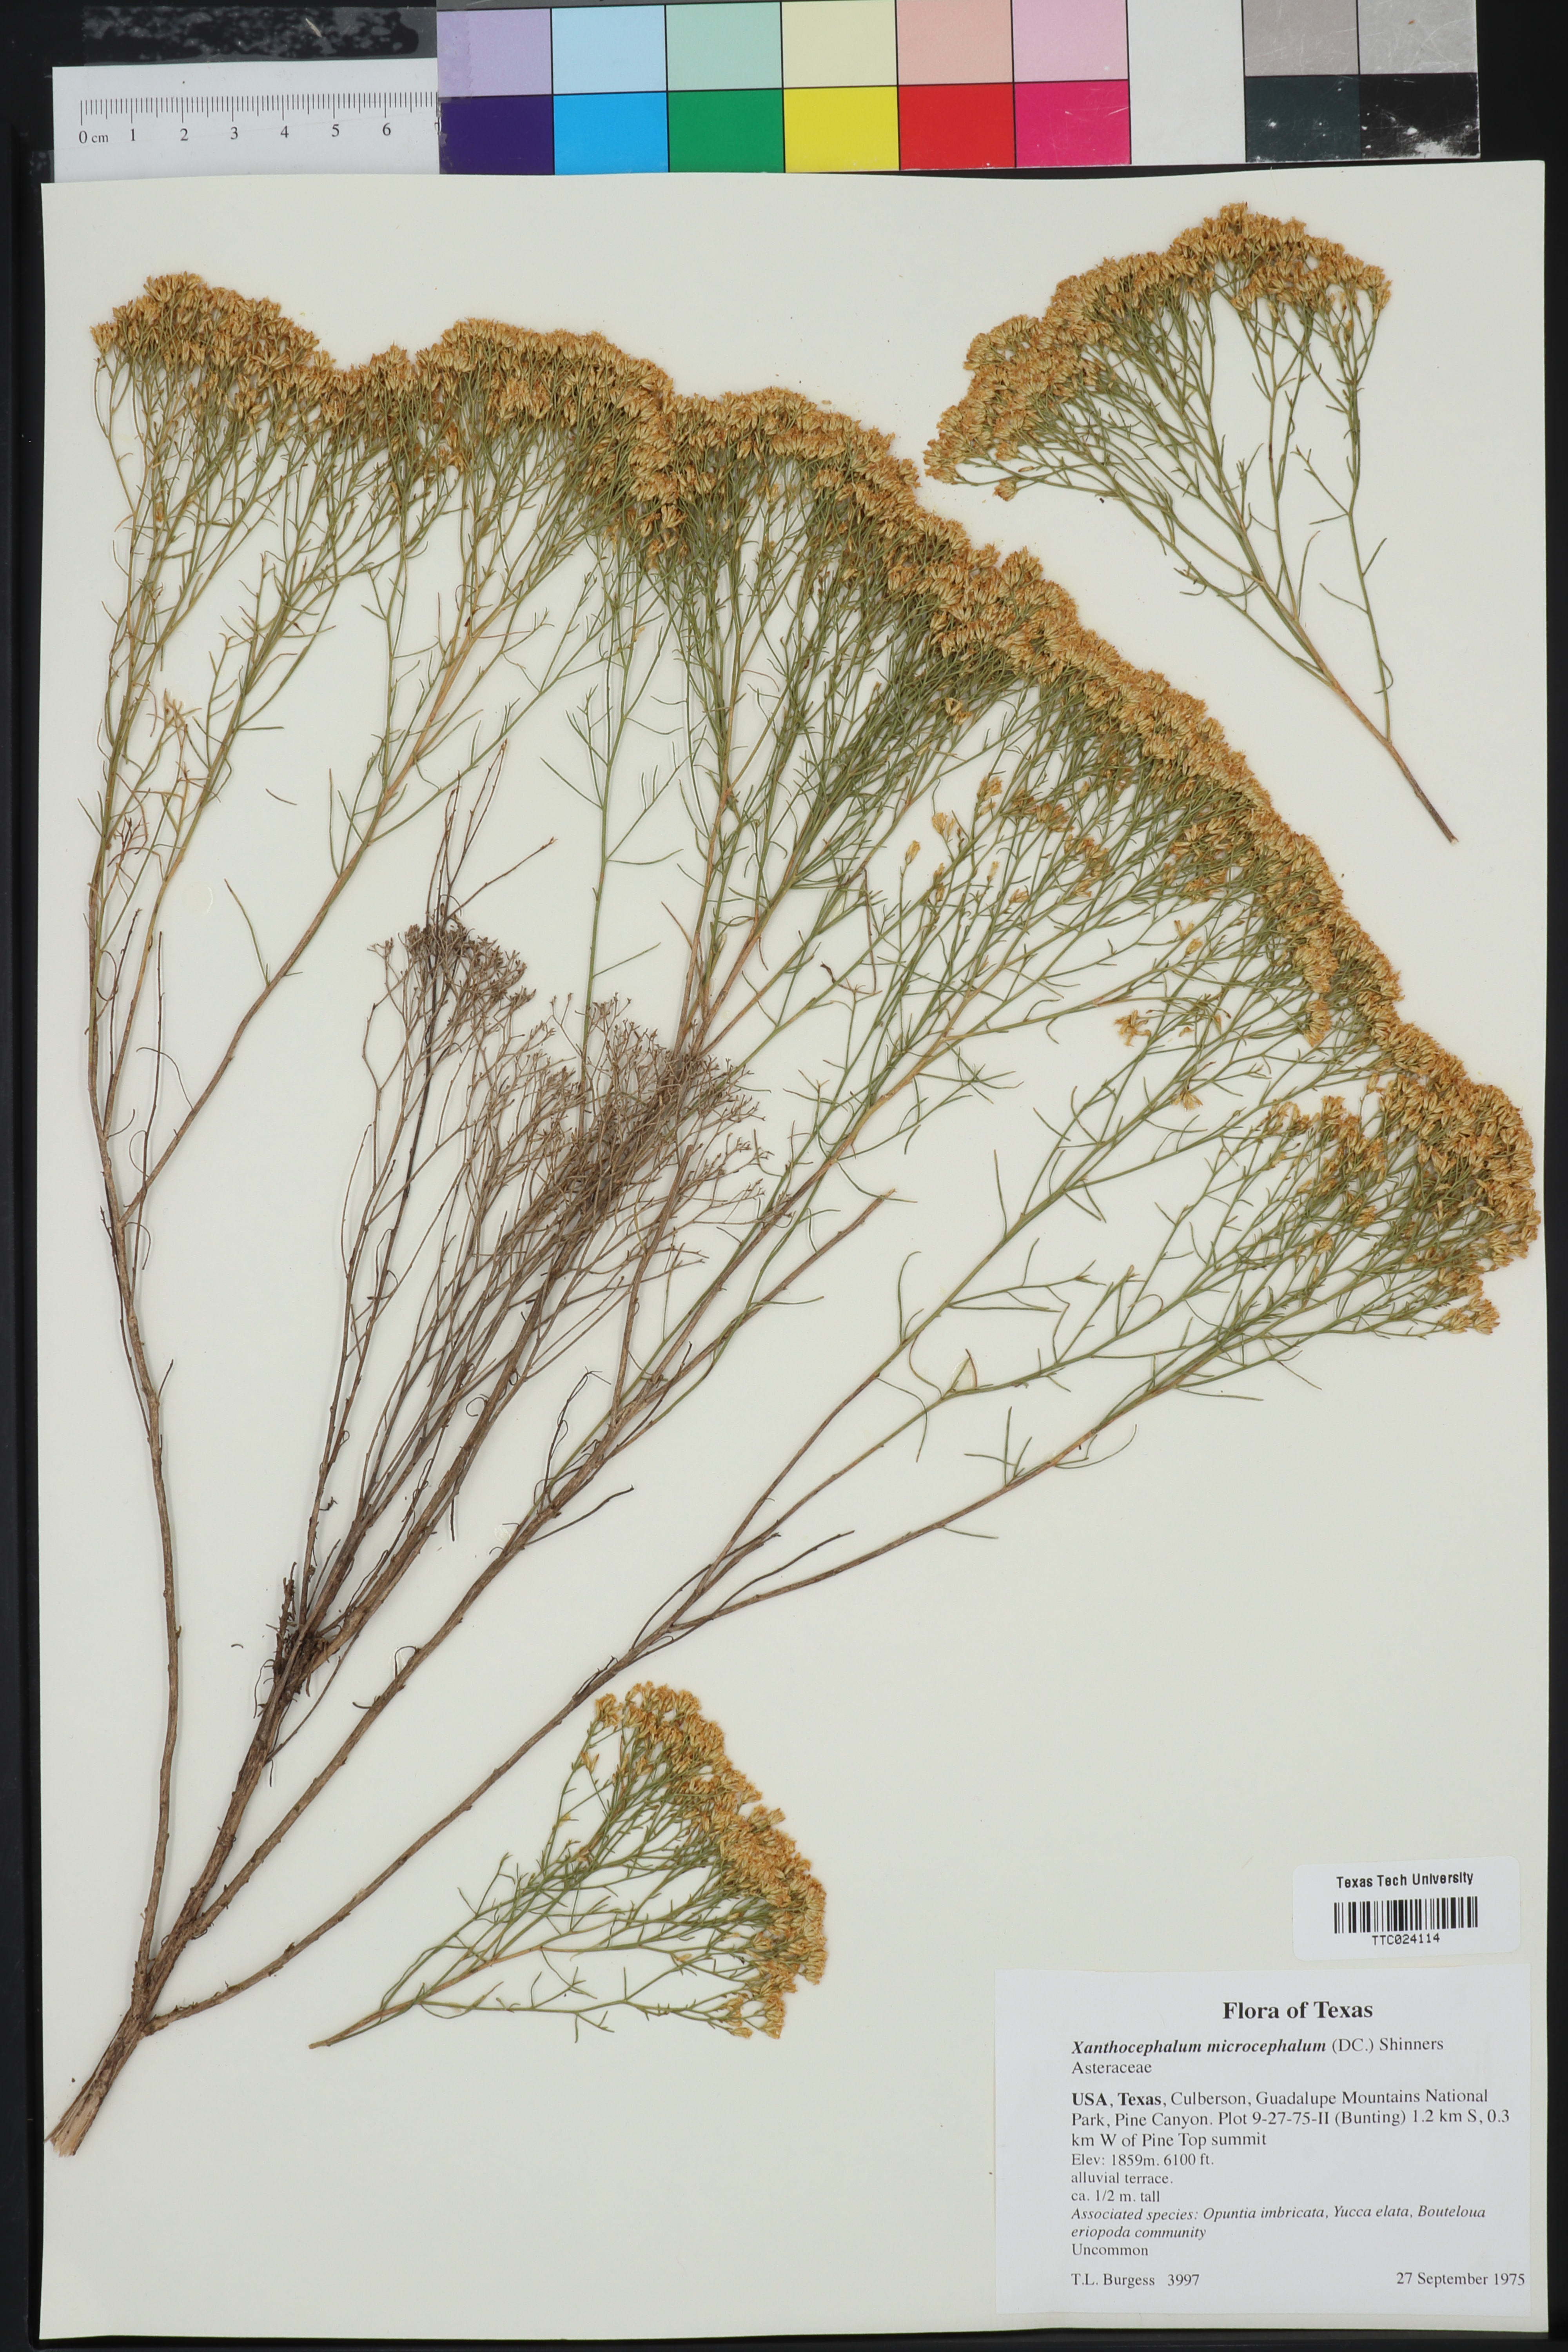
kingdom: Plantae
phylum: Tracheophyta
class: Magnoliopsida
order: Asterales
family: Asteraceae
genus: Gutierrezia
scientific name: Gutierrezia microcephala
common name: Thread snakeweed
